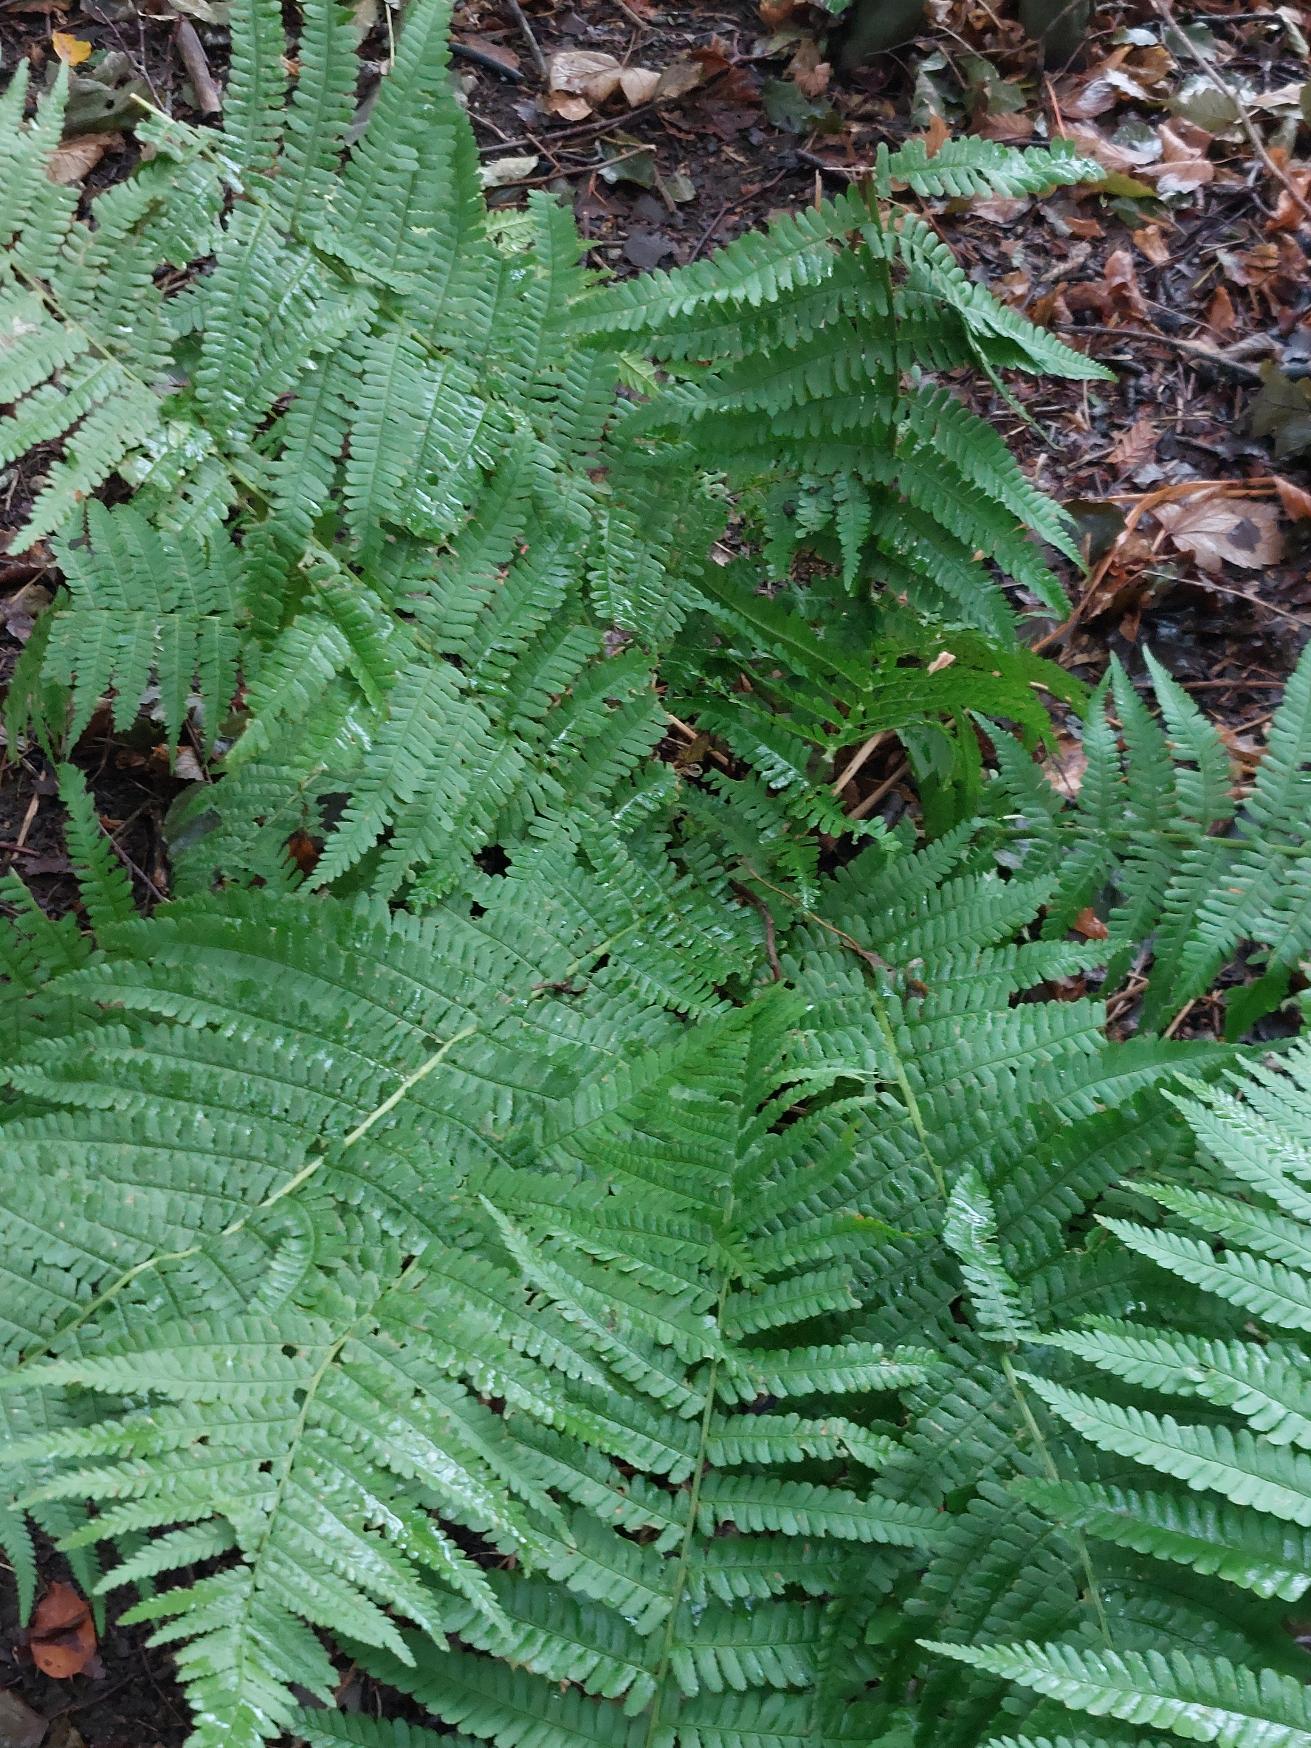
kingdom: Plantae
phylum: Tracheophyta
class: Polypodiopsida
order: Polypodiales
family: Dryopteridaceae
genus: Dryopteris
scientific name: Dryopteris filix-mas
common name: Almindelig mangeløv
